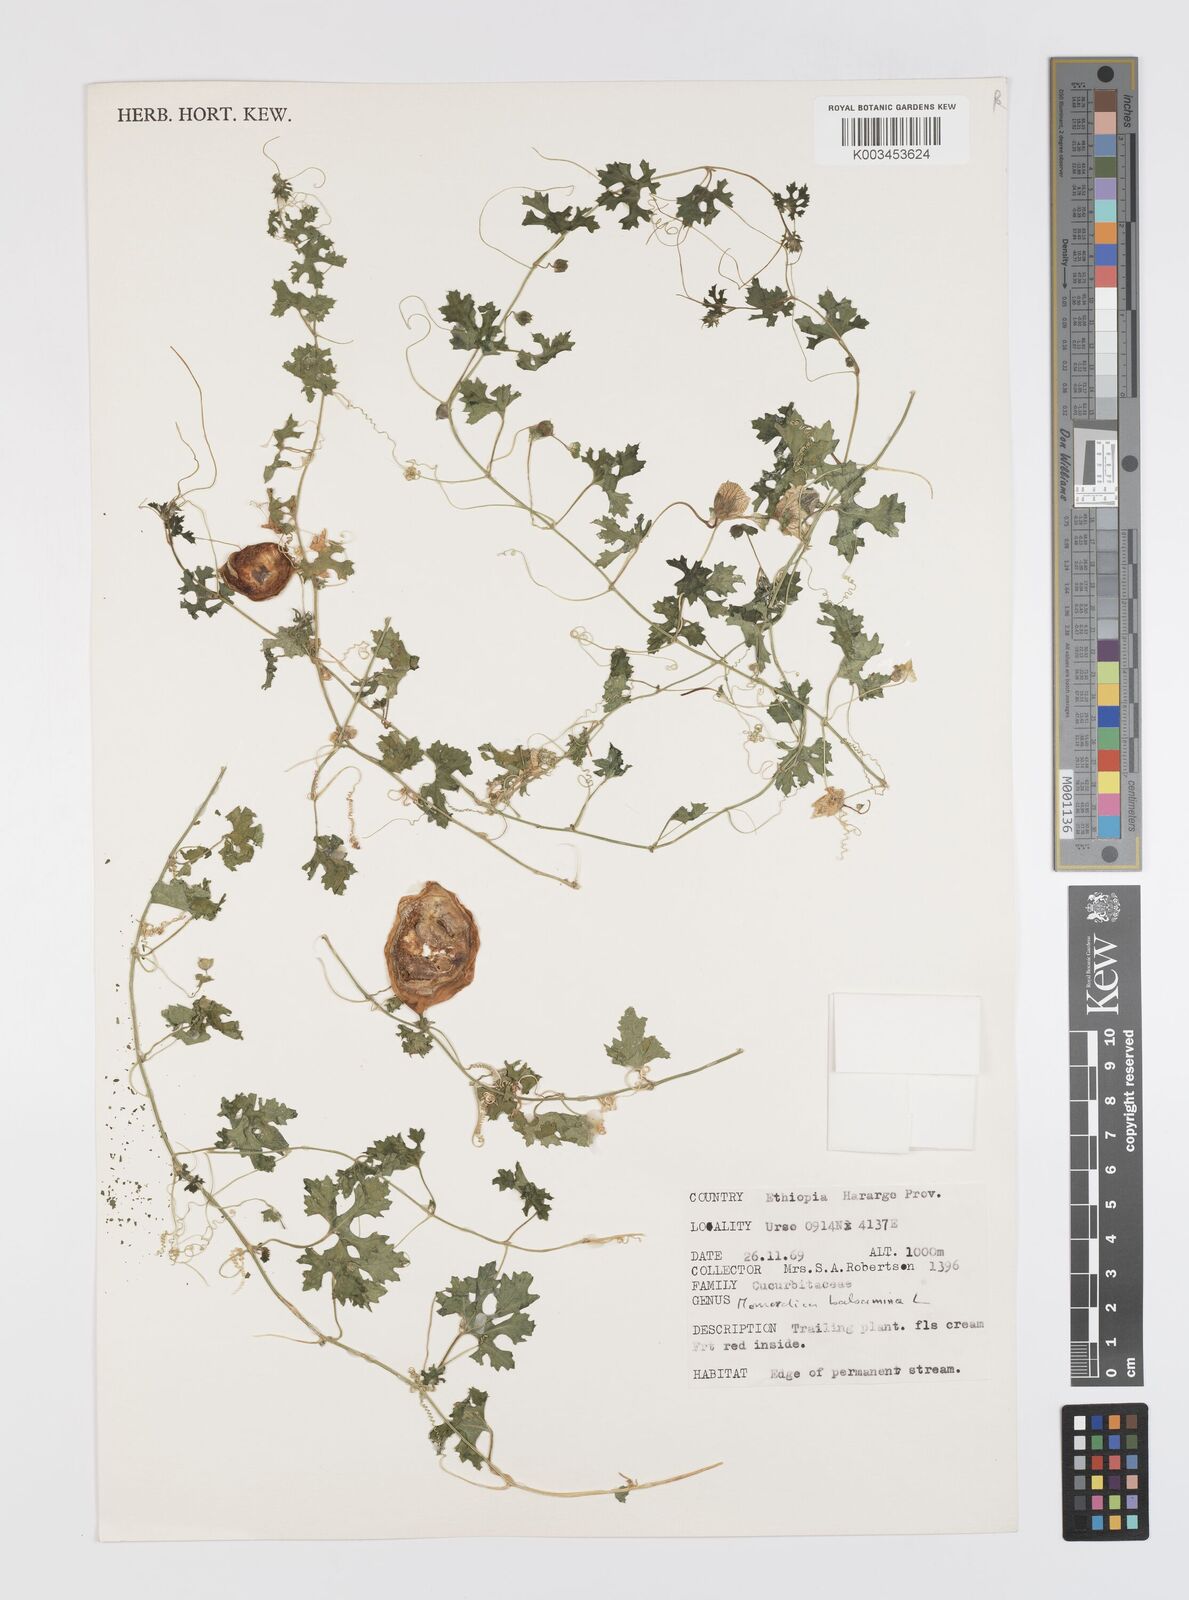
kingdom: Plantae
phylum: Tracheophyta
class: Magnoliopsida
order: Cucurbitales
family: Cucurbitaceae
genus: Momordica
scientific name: Momordica balsamina
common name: Southern balsampear
